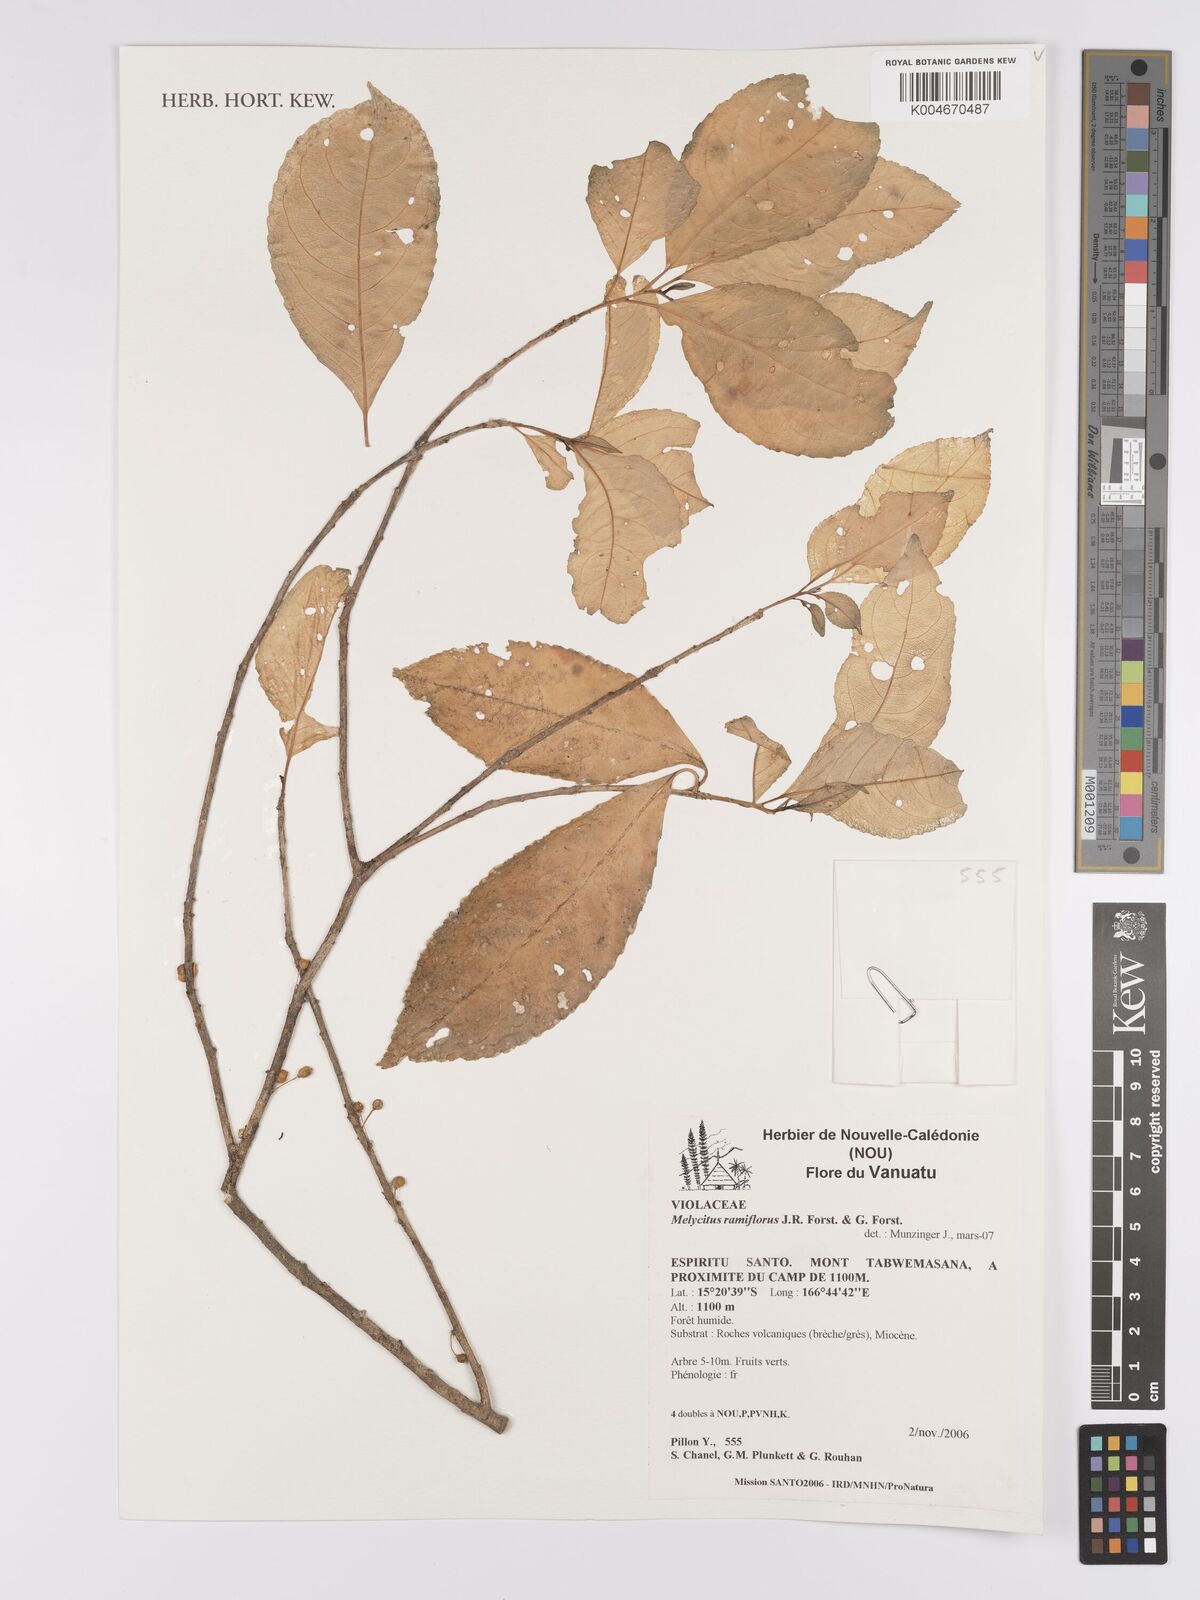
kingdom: Plantae
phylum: Tracheophyta
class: Magnoliopsida
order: Malpighiales
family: Violaceae
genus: Melicytus
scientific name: Melicytus ramiflorus
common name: Mahoe
